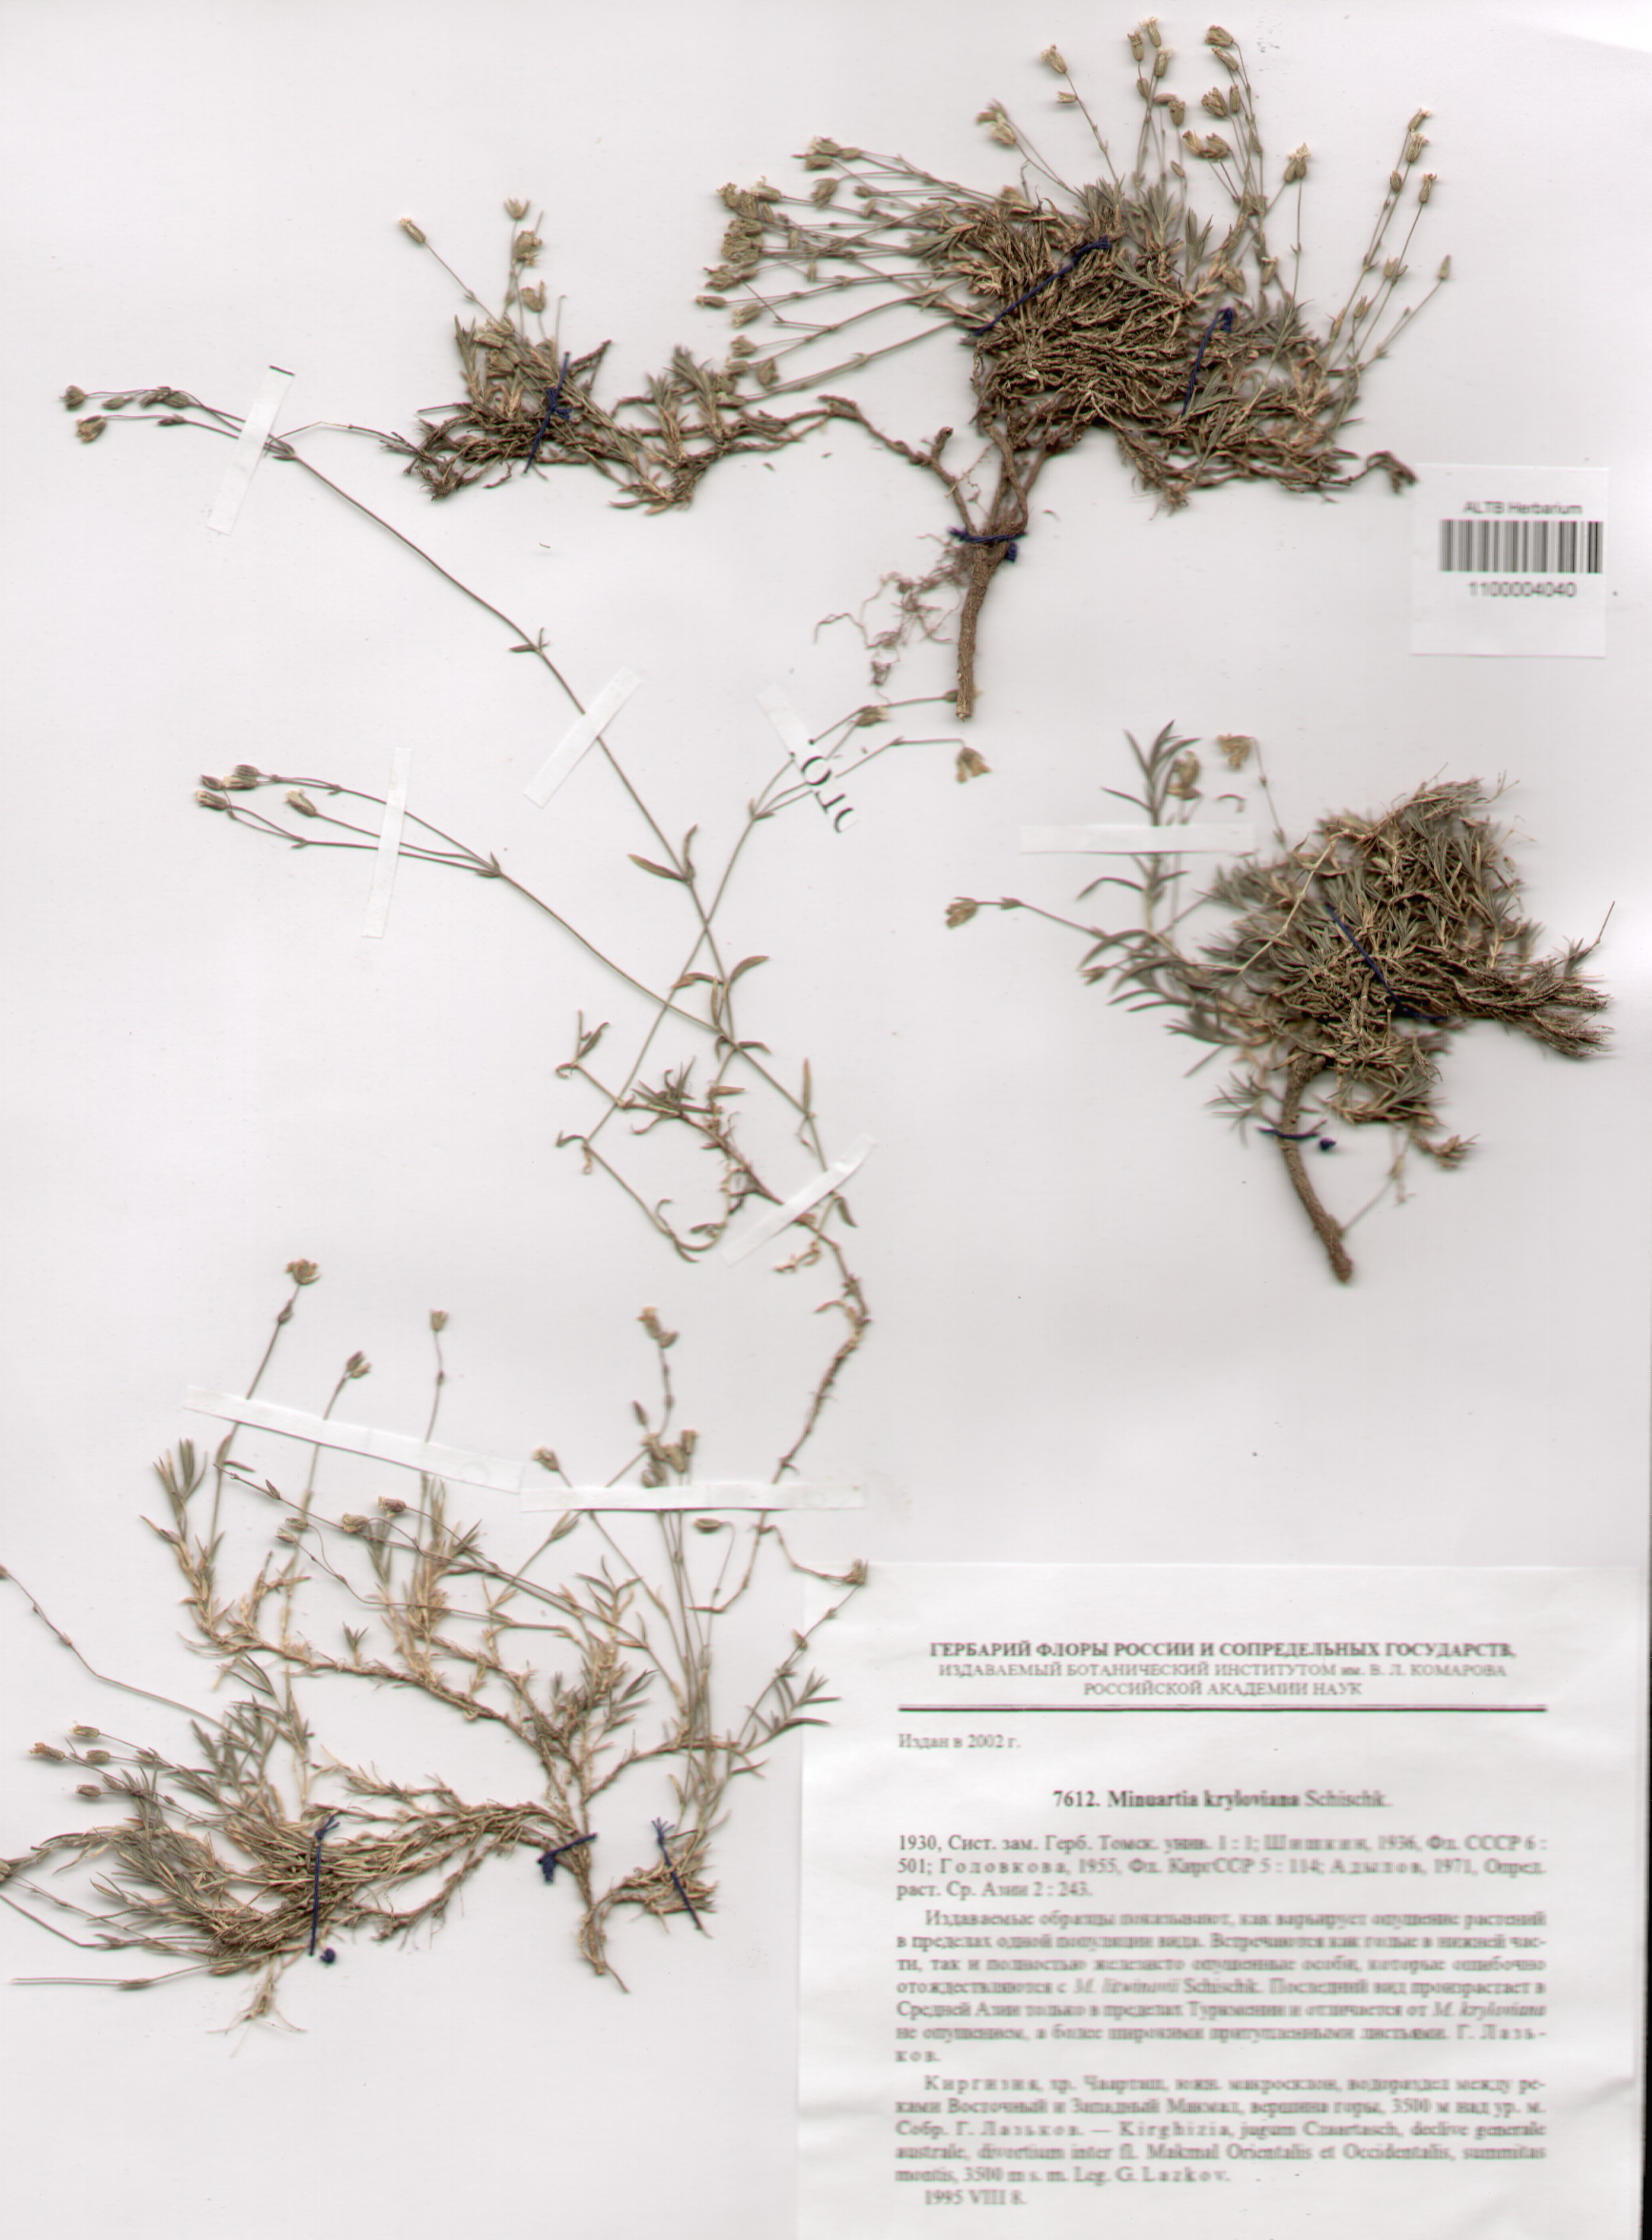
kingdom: Plantae
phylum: Tracheophyta
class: Magnoliopsida
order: Caryophyllales
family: Caryophyllaceae
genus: Sabulina
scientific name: Sabulina kryloviana
